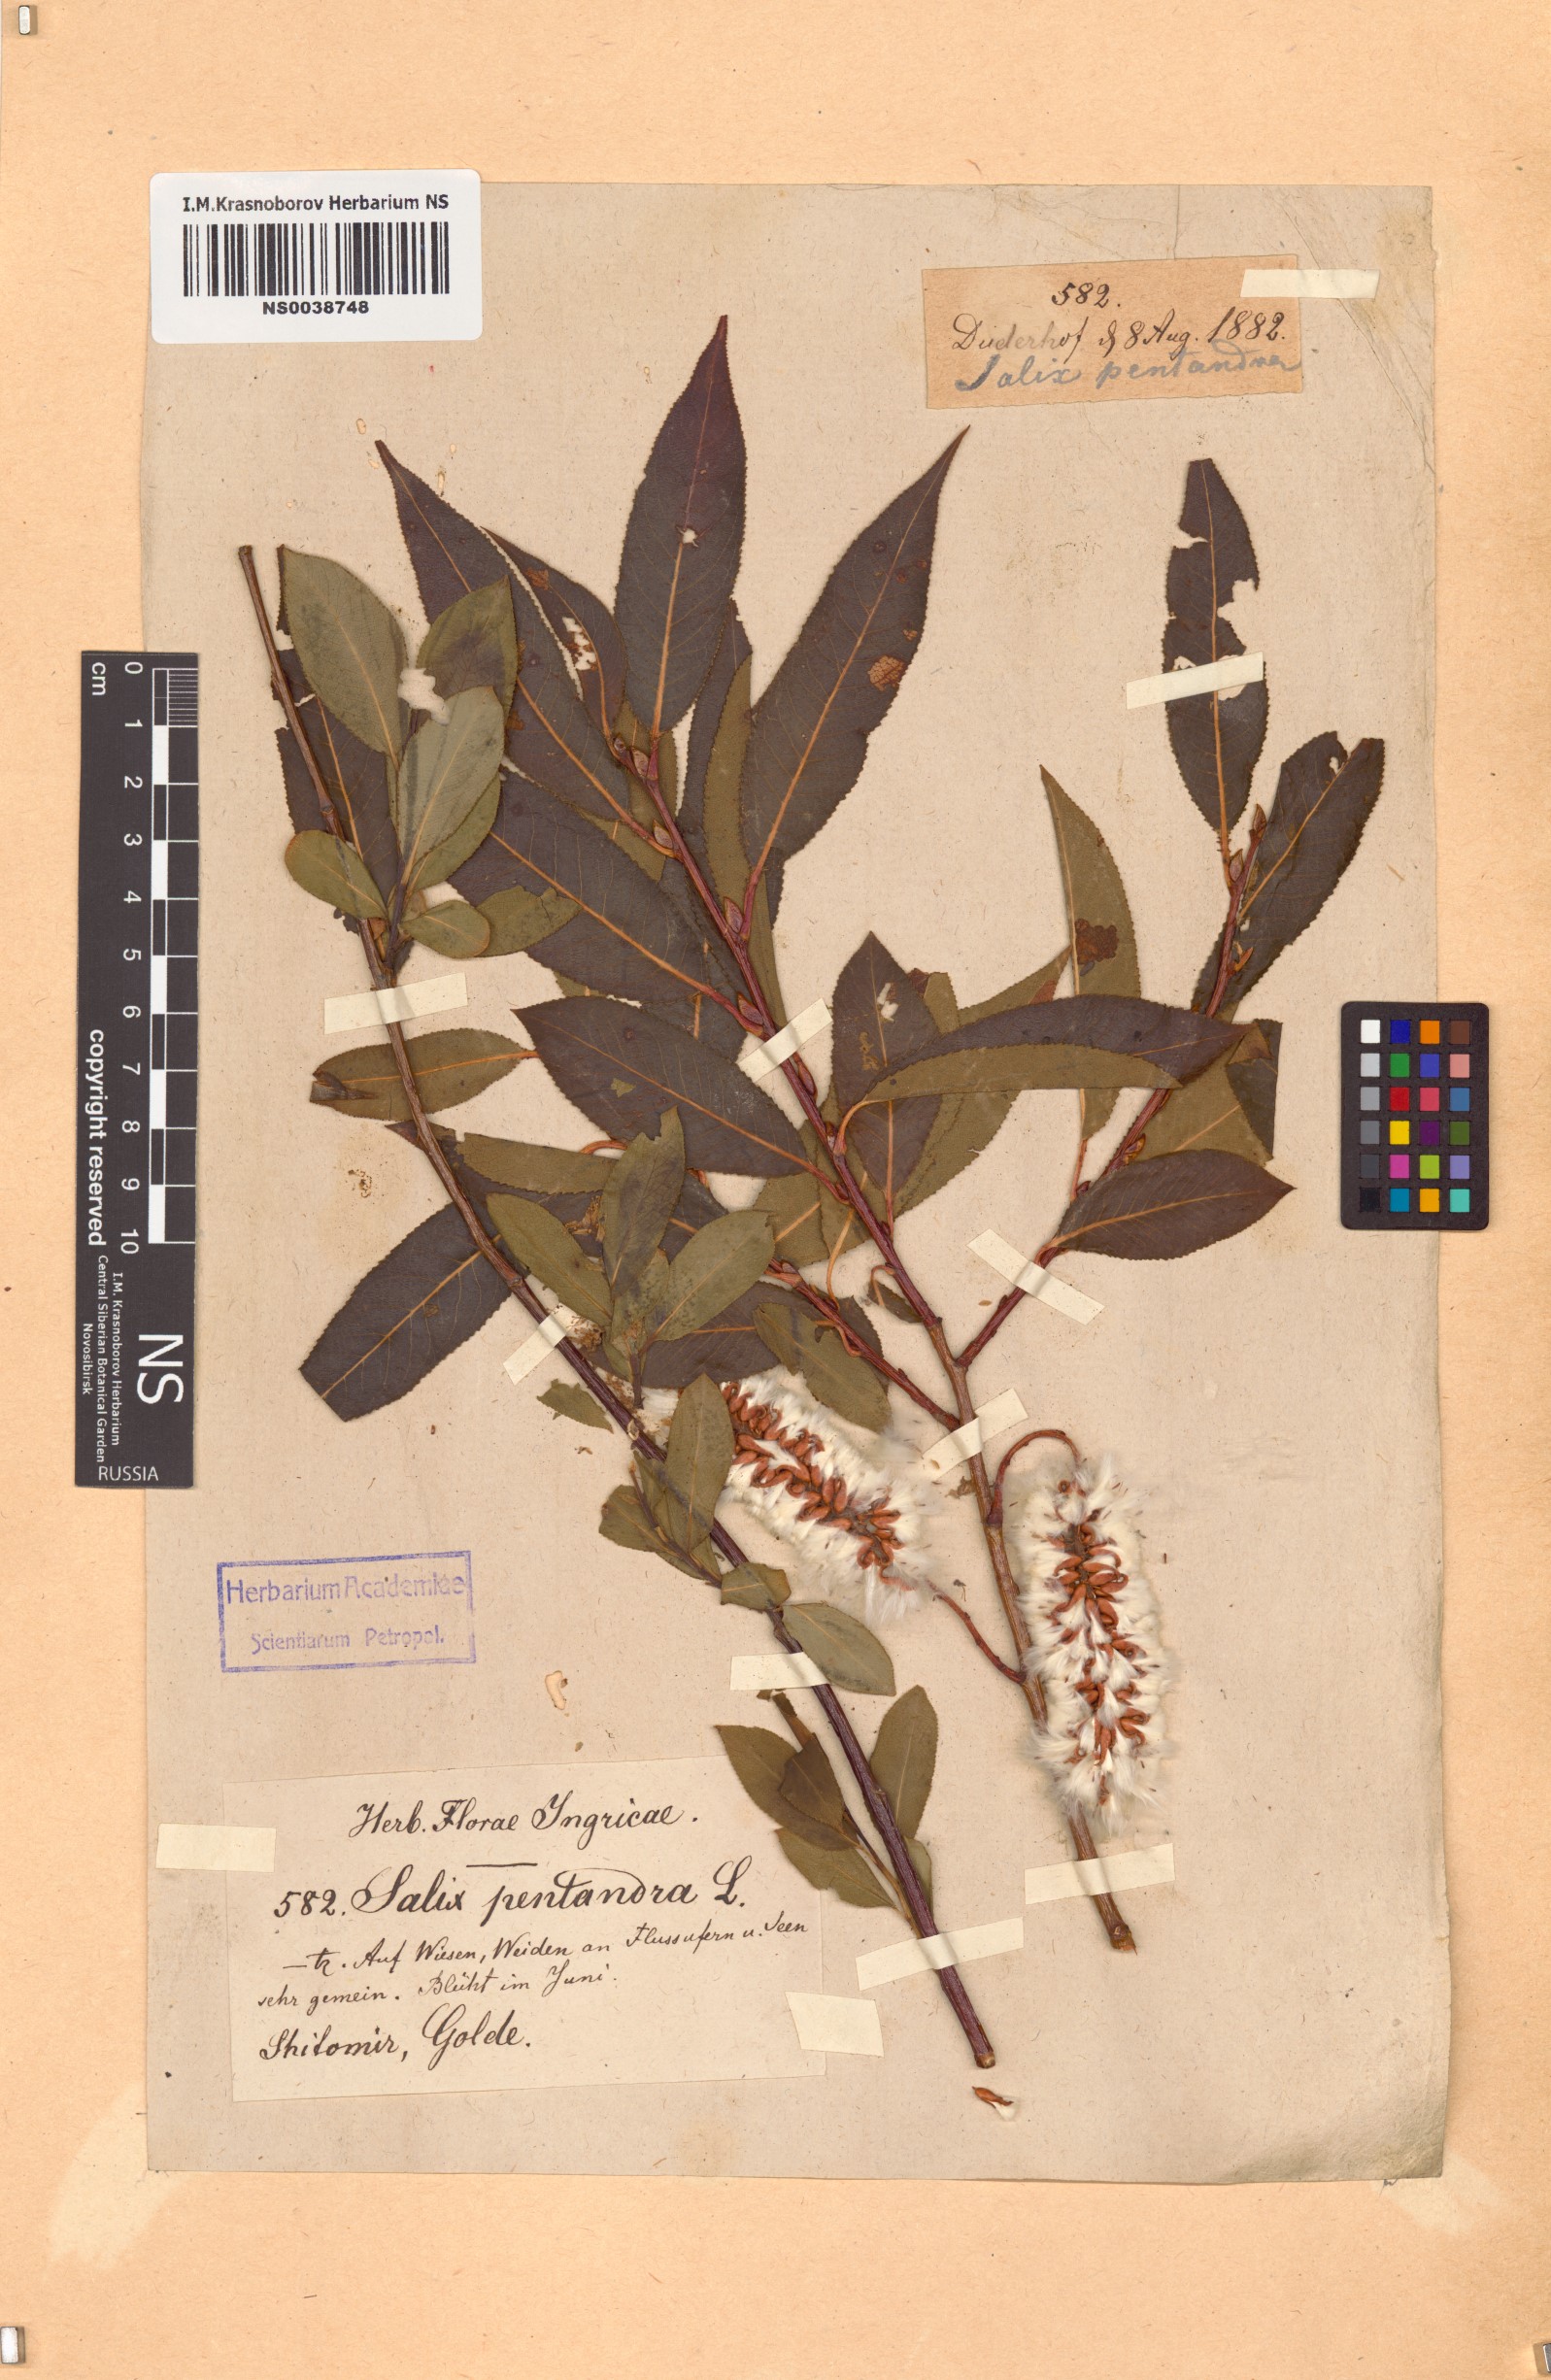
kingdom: Plantae
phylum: Tracheophyta
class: Magnoliopsida
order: Malpighiales
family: Salicaceae
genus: Salix
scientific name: Salix pentandra
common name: Bay willow
